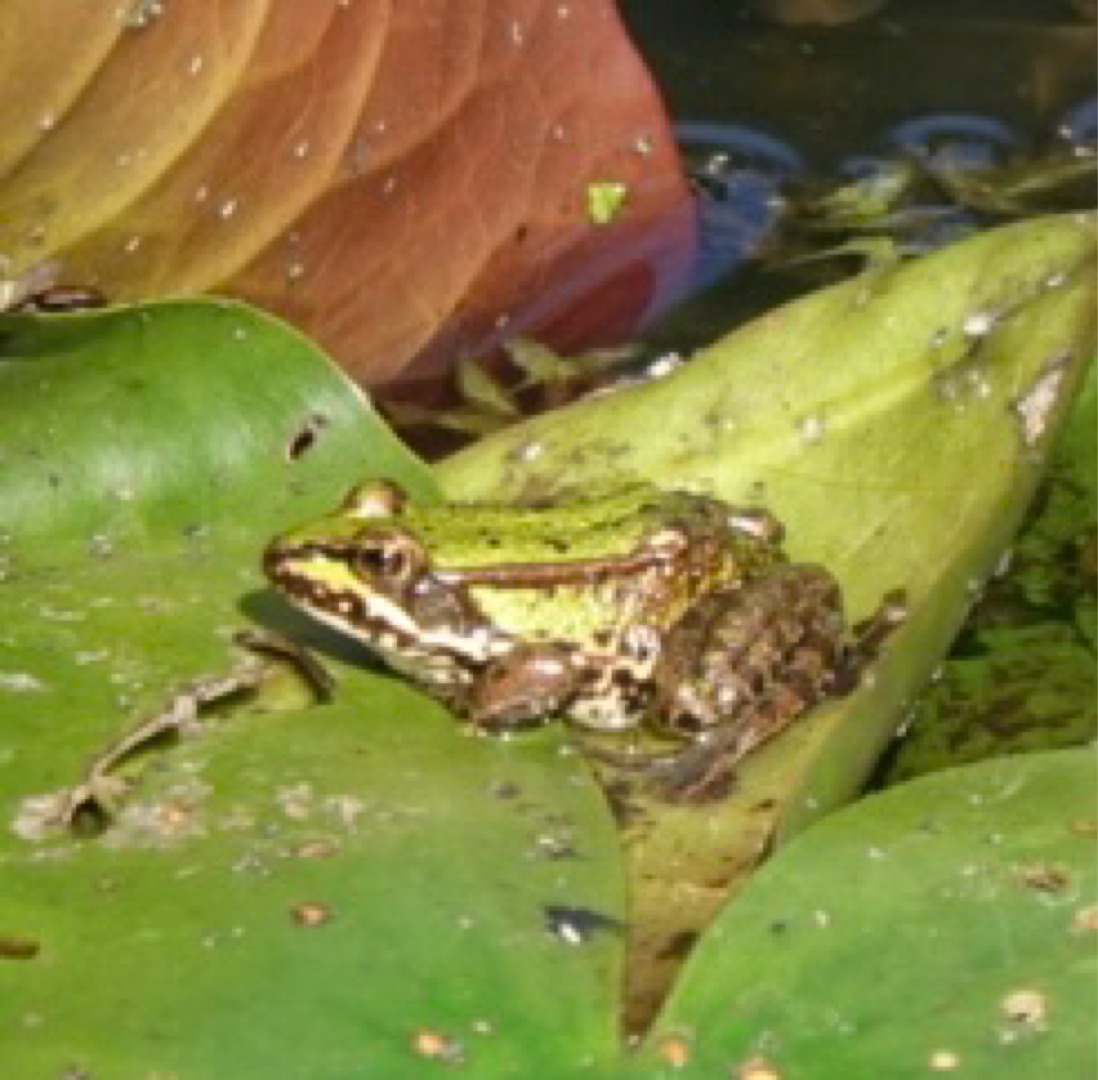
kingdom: Animalia
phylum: Chordata
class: Amphibia
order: Anura
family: Ranidae
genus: Pelophylax
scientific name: Pelophylax lessonae
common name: Grøn frø
